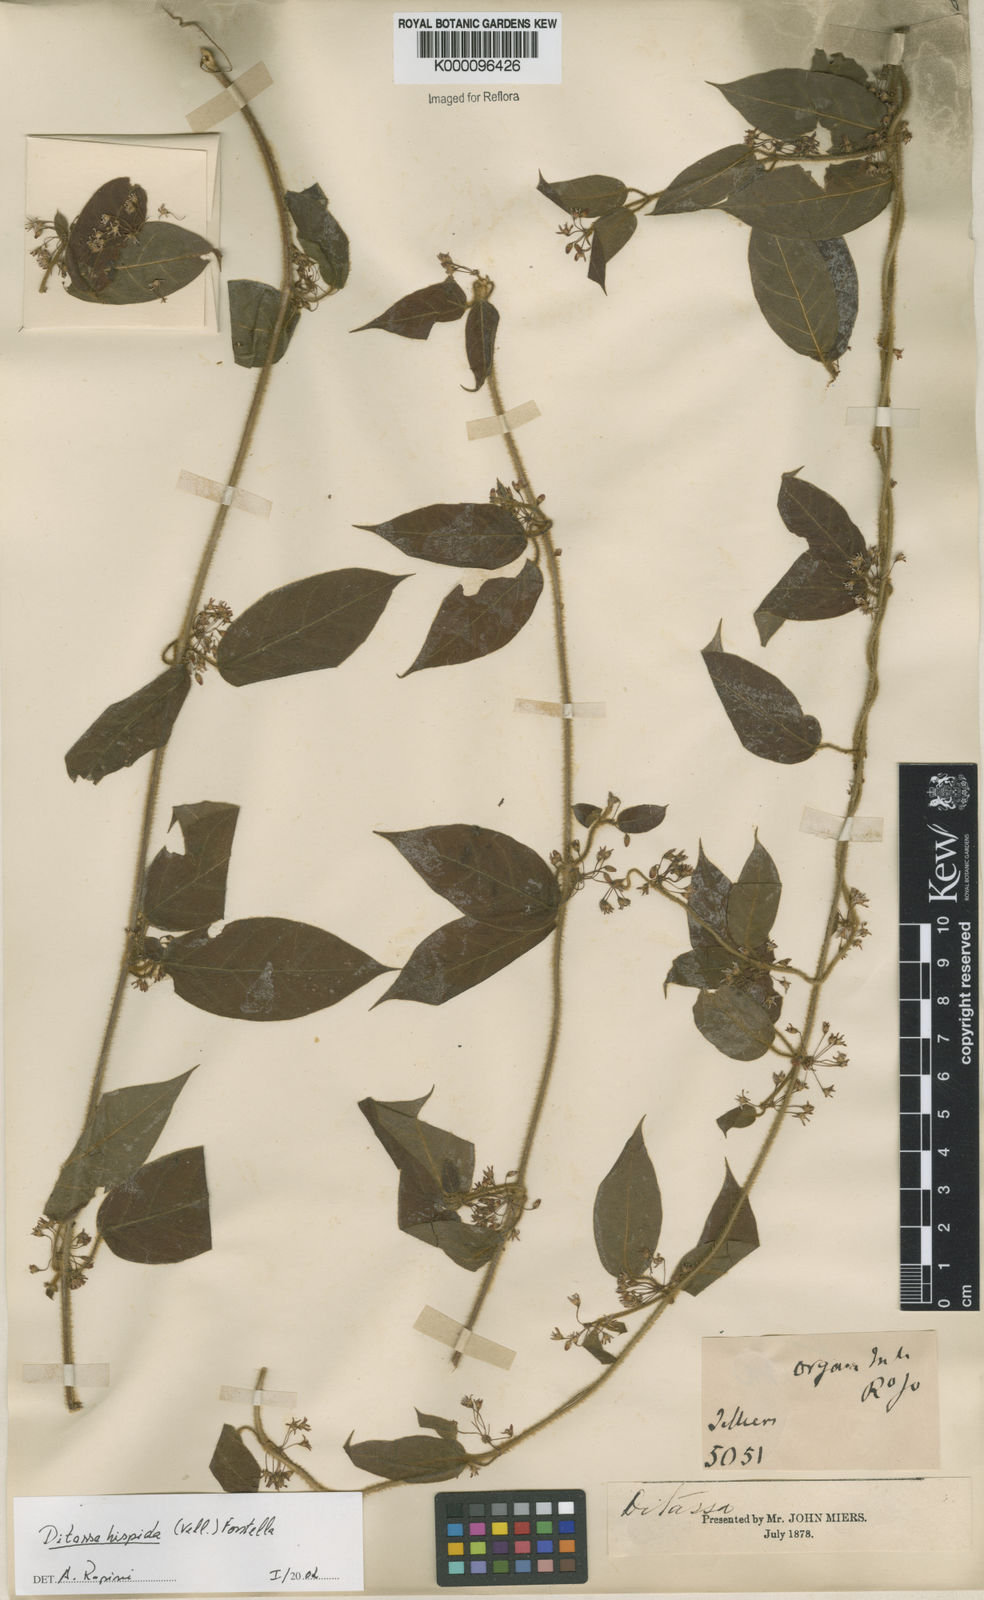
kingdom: Plantae
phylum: Tracheophyta
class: Magnoliopsida
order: Gentianales
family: Apocynaceae
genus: Ditassa
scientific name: Ditassa hispida
